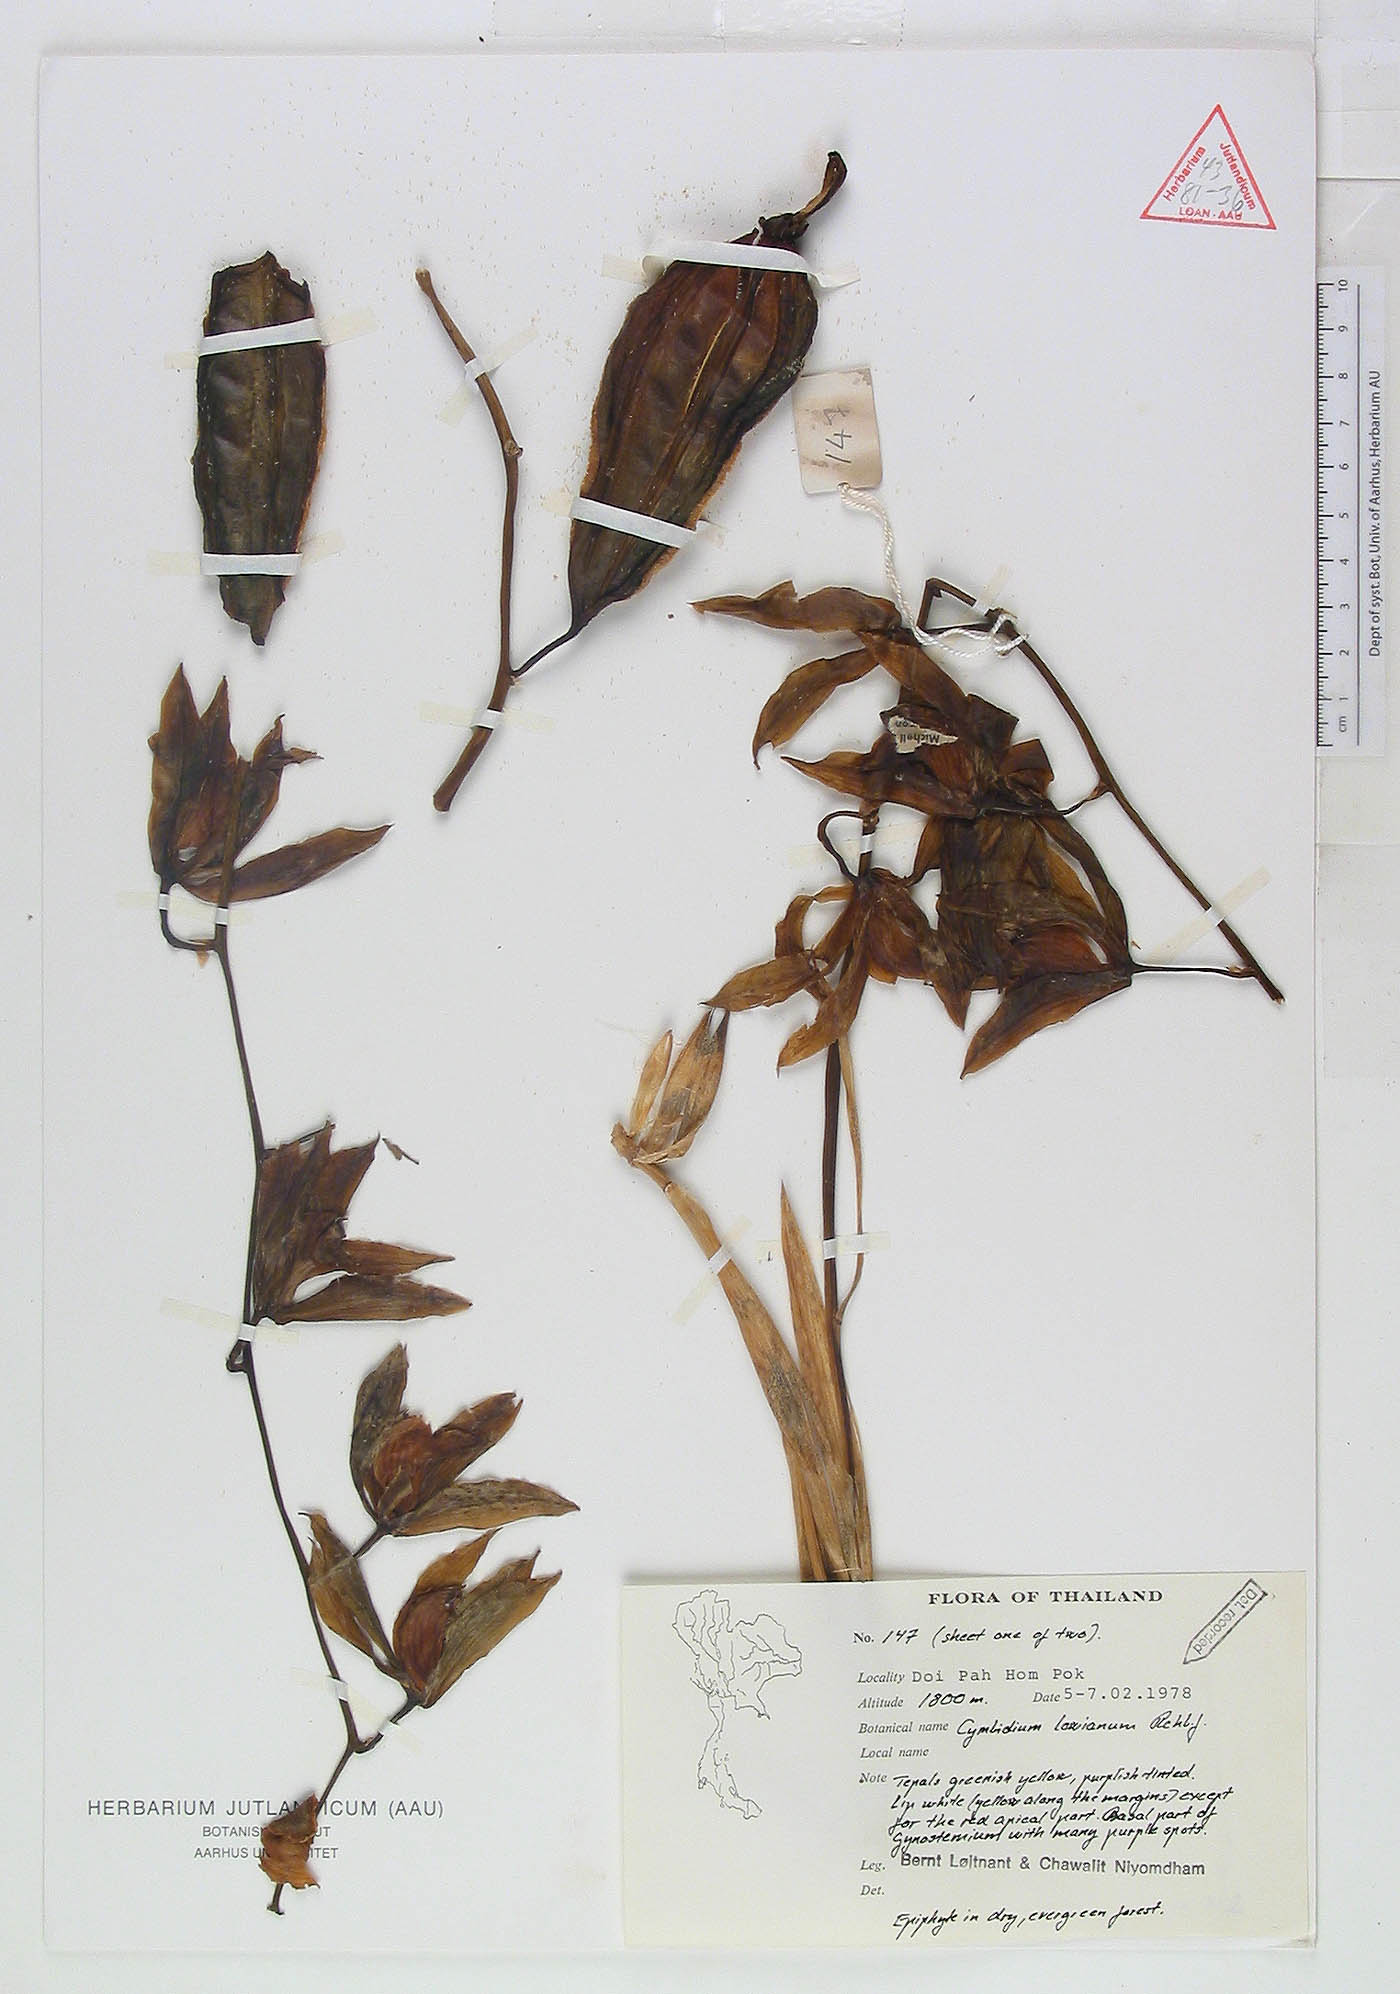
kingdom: Plantae
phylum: Tracheophyta
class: Liliopsida
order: Asparagales
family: Orchidaceae
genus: Cymbidium
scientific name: Cymbidium lowianum
